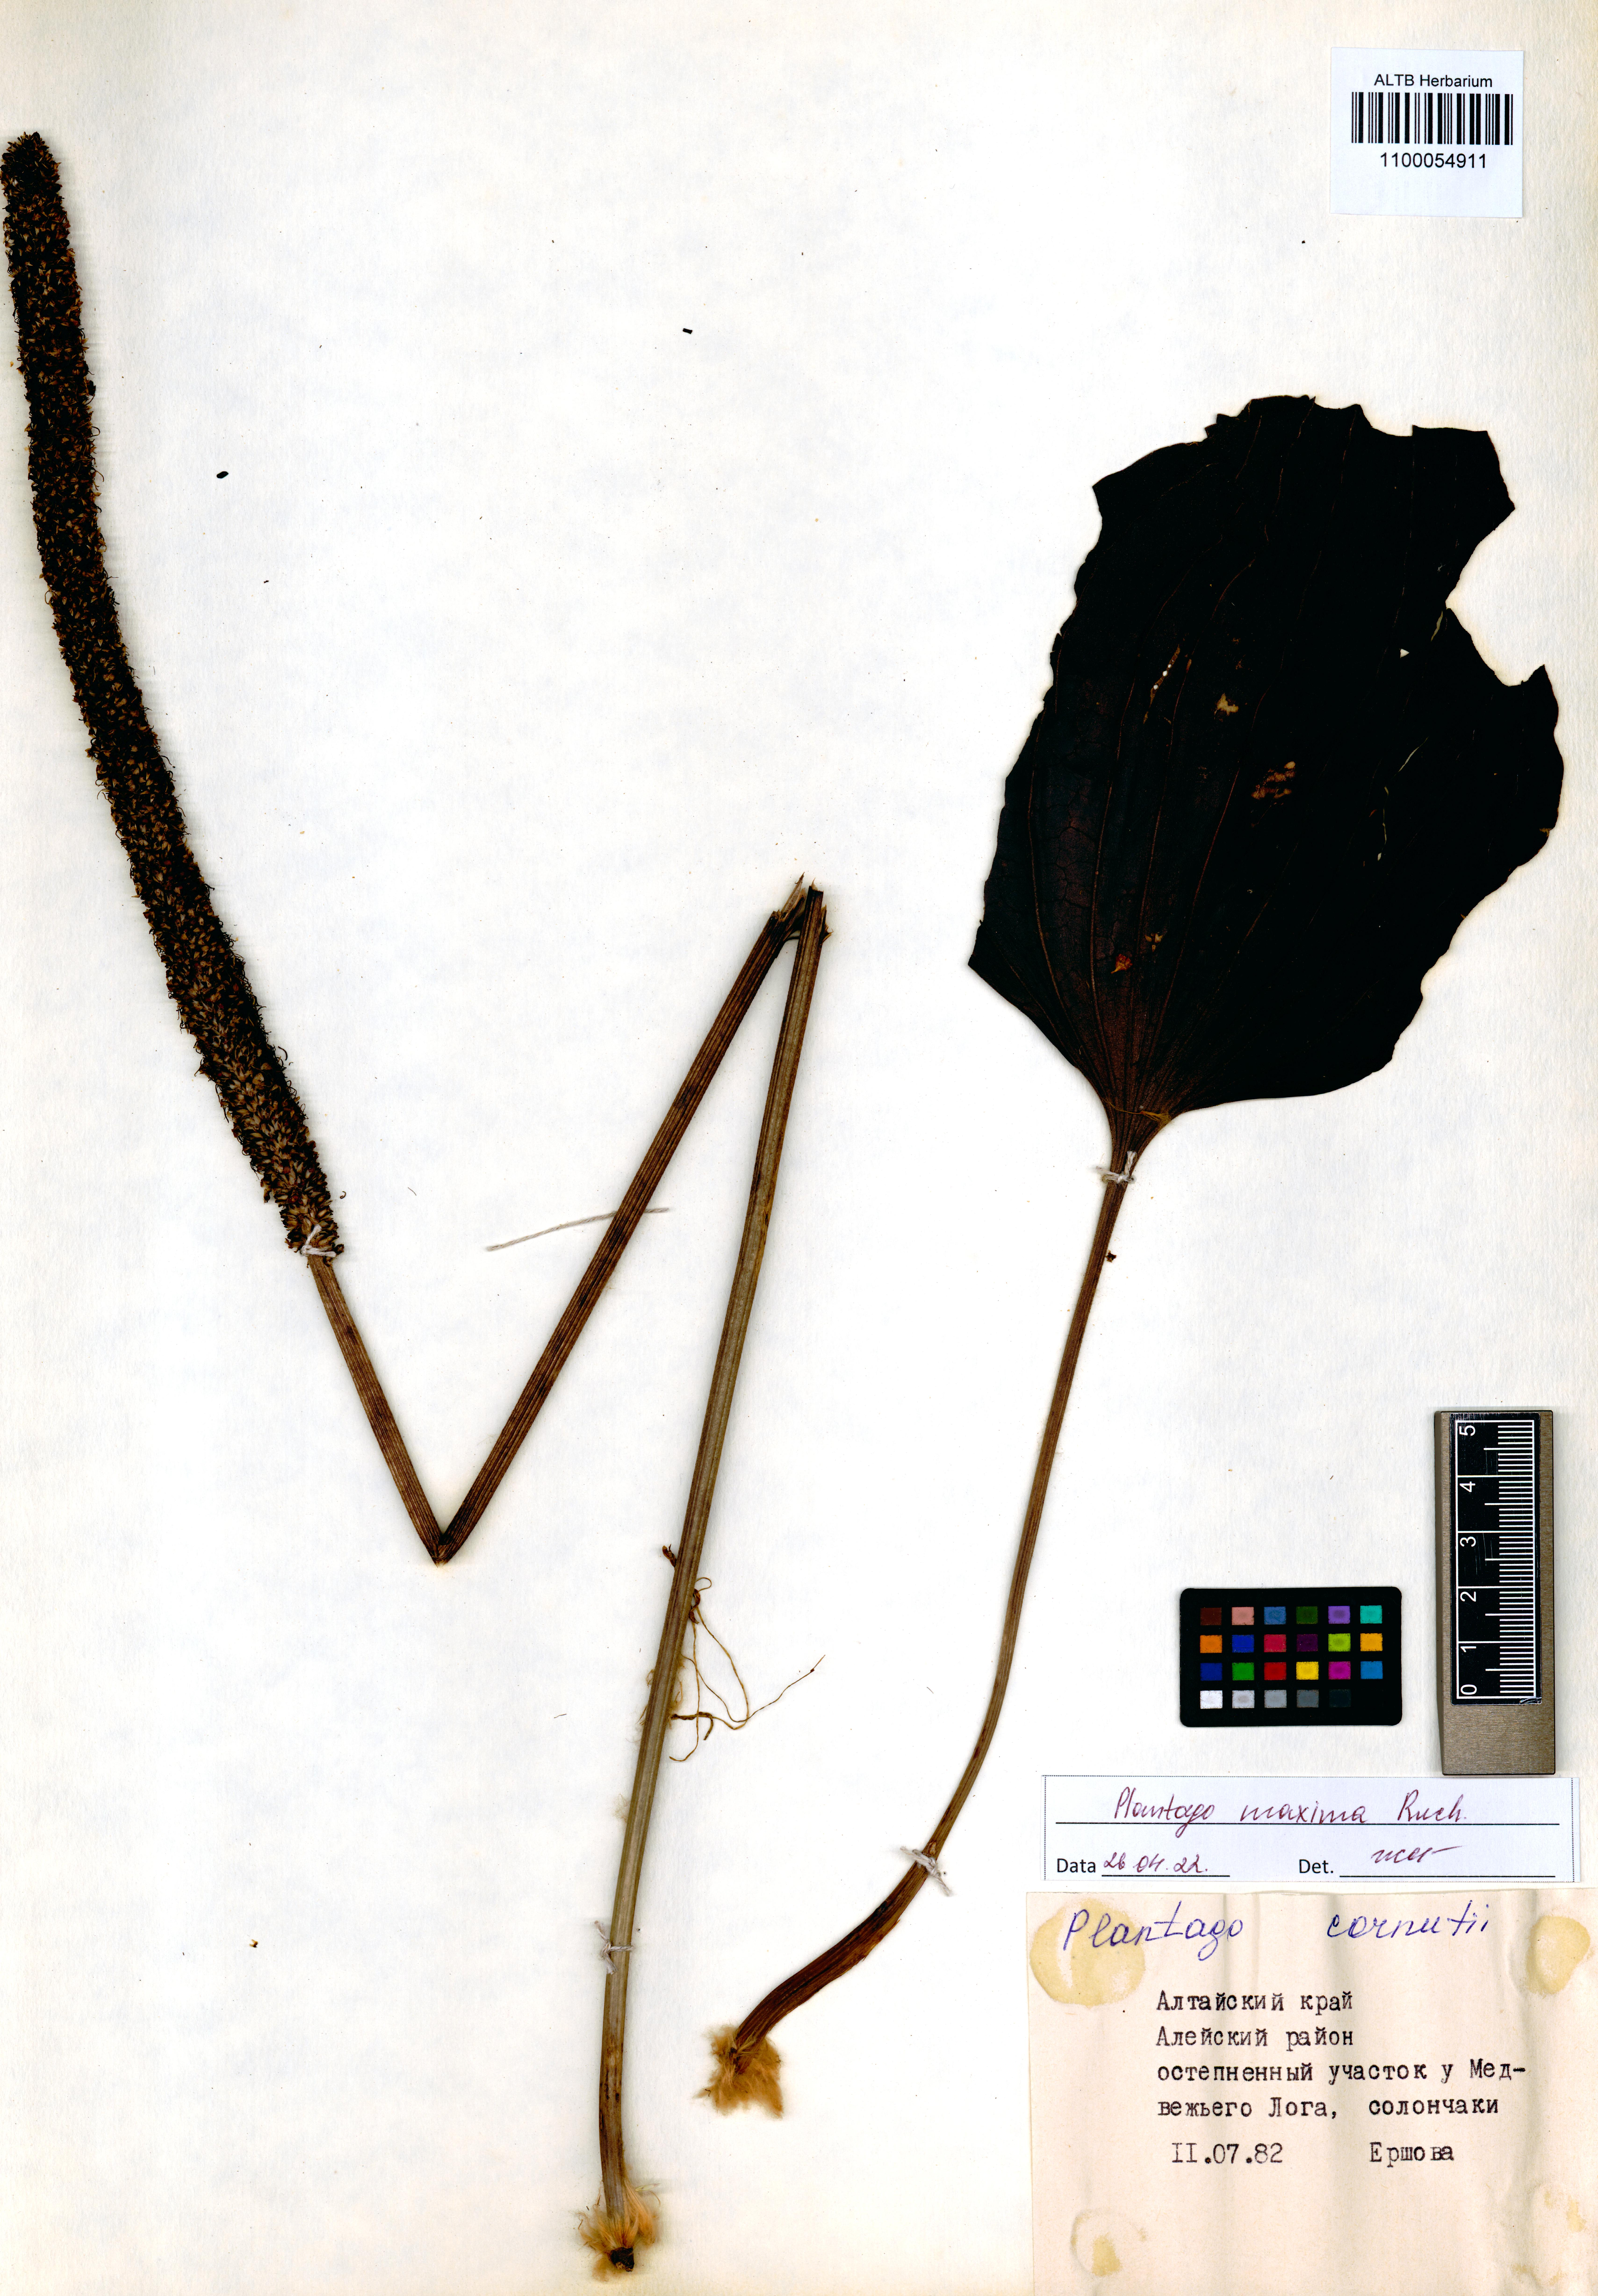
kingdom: Plantae
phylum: Tracheophyta
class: Magnoliopsida
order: Lamiales
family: Plantaginaceae
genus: Plantago
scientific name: Plantago maxima
